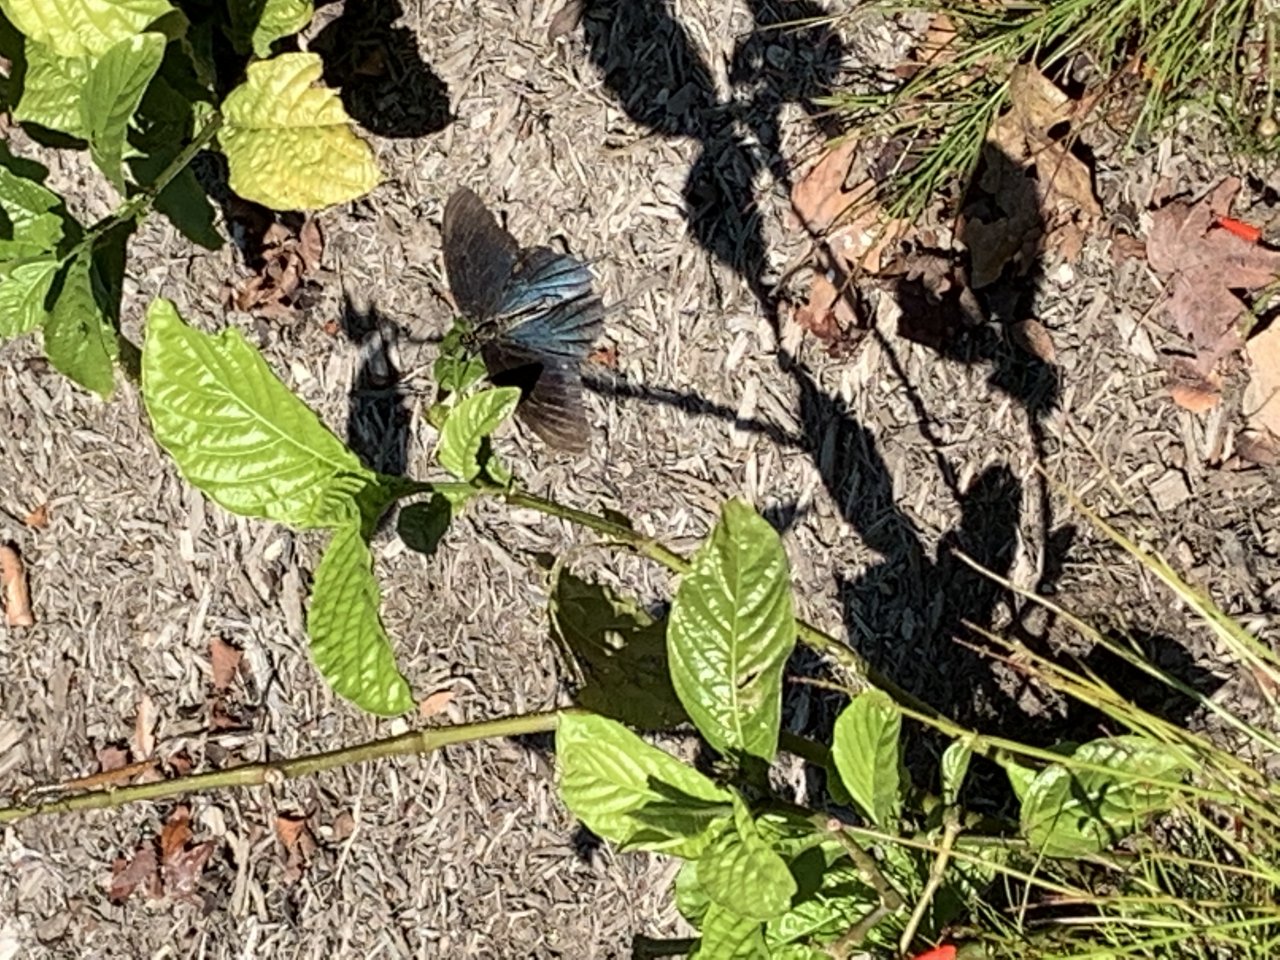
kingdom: Animalia
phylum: Arthropoda
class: Insecta
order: Lepidoptera
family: Papilionidae
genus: Battus
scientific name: Battus philenor
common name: Pipevine Swallowtail
